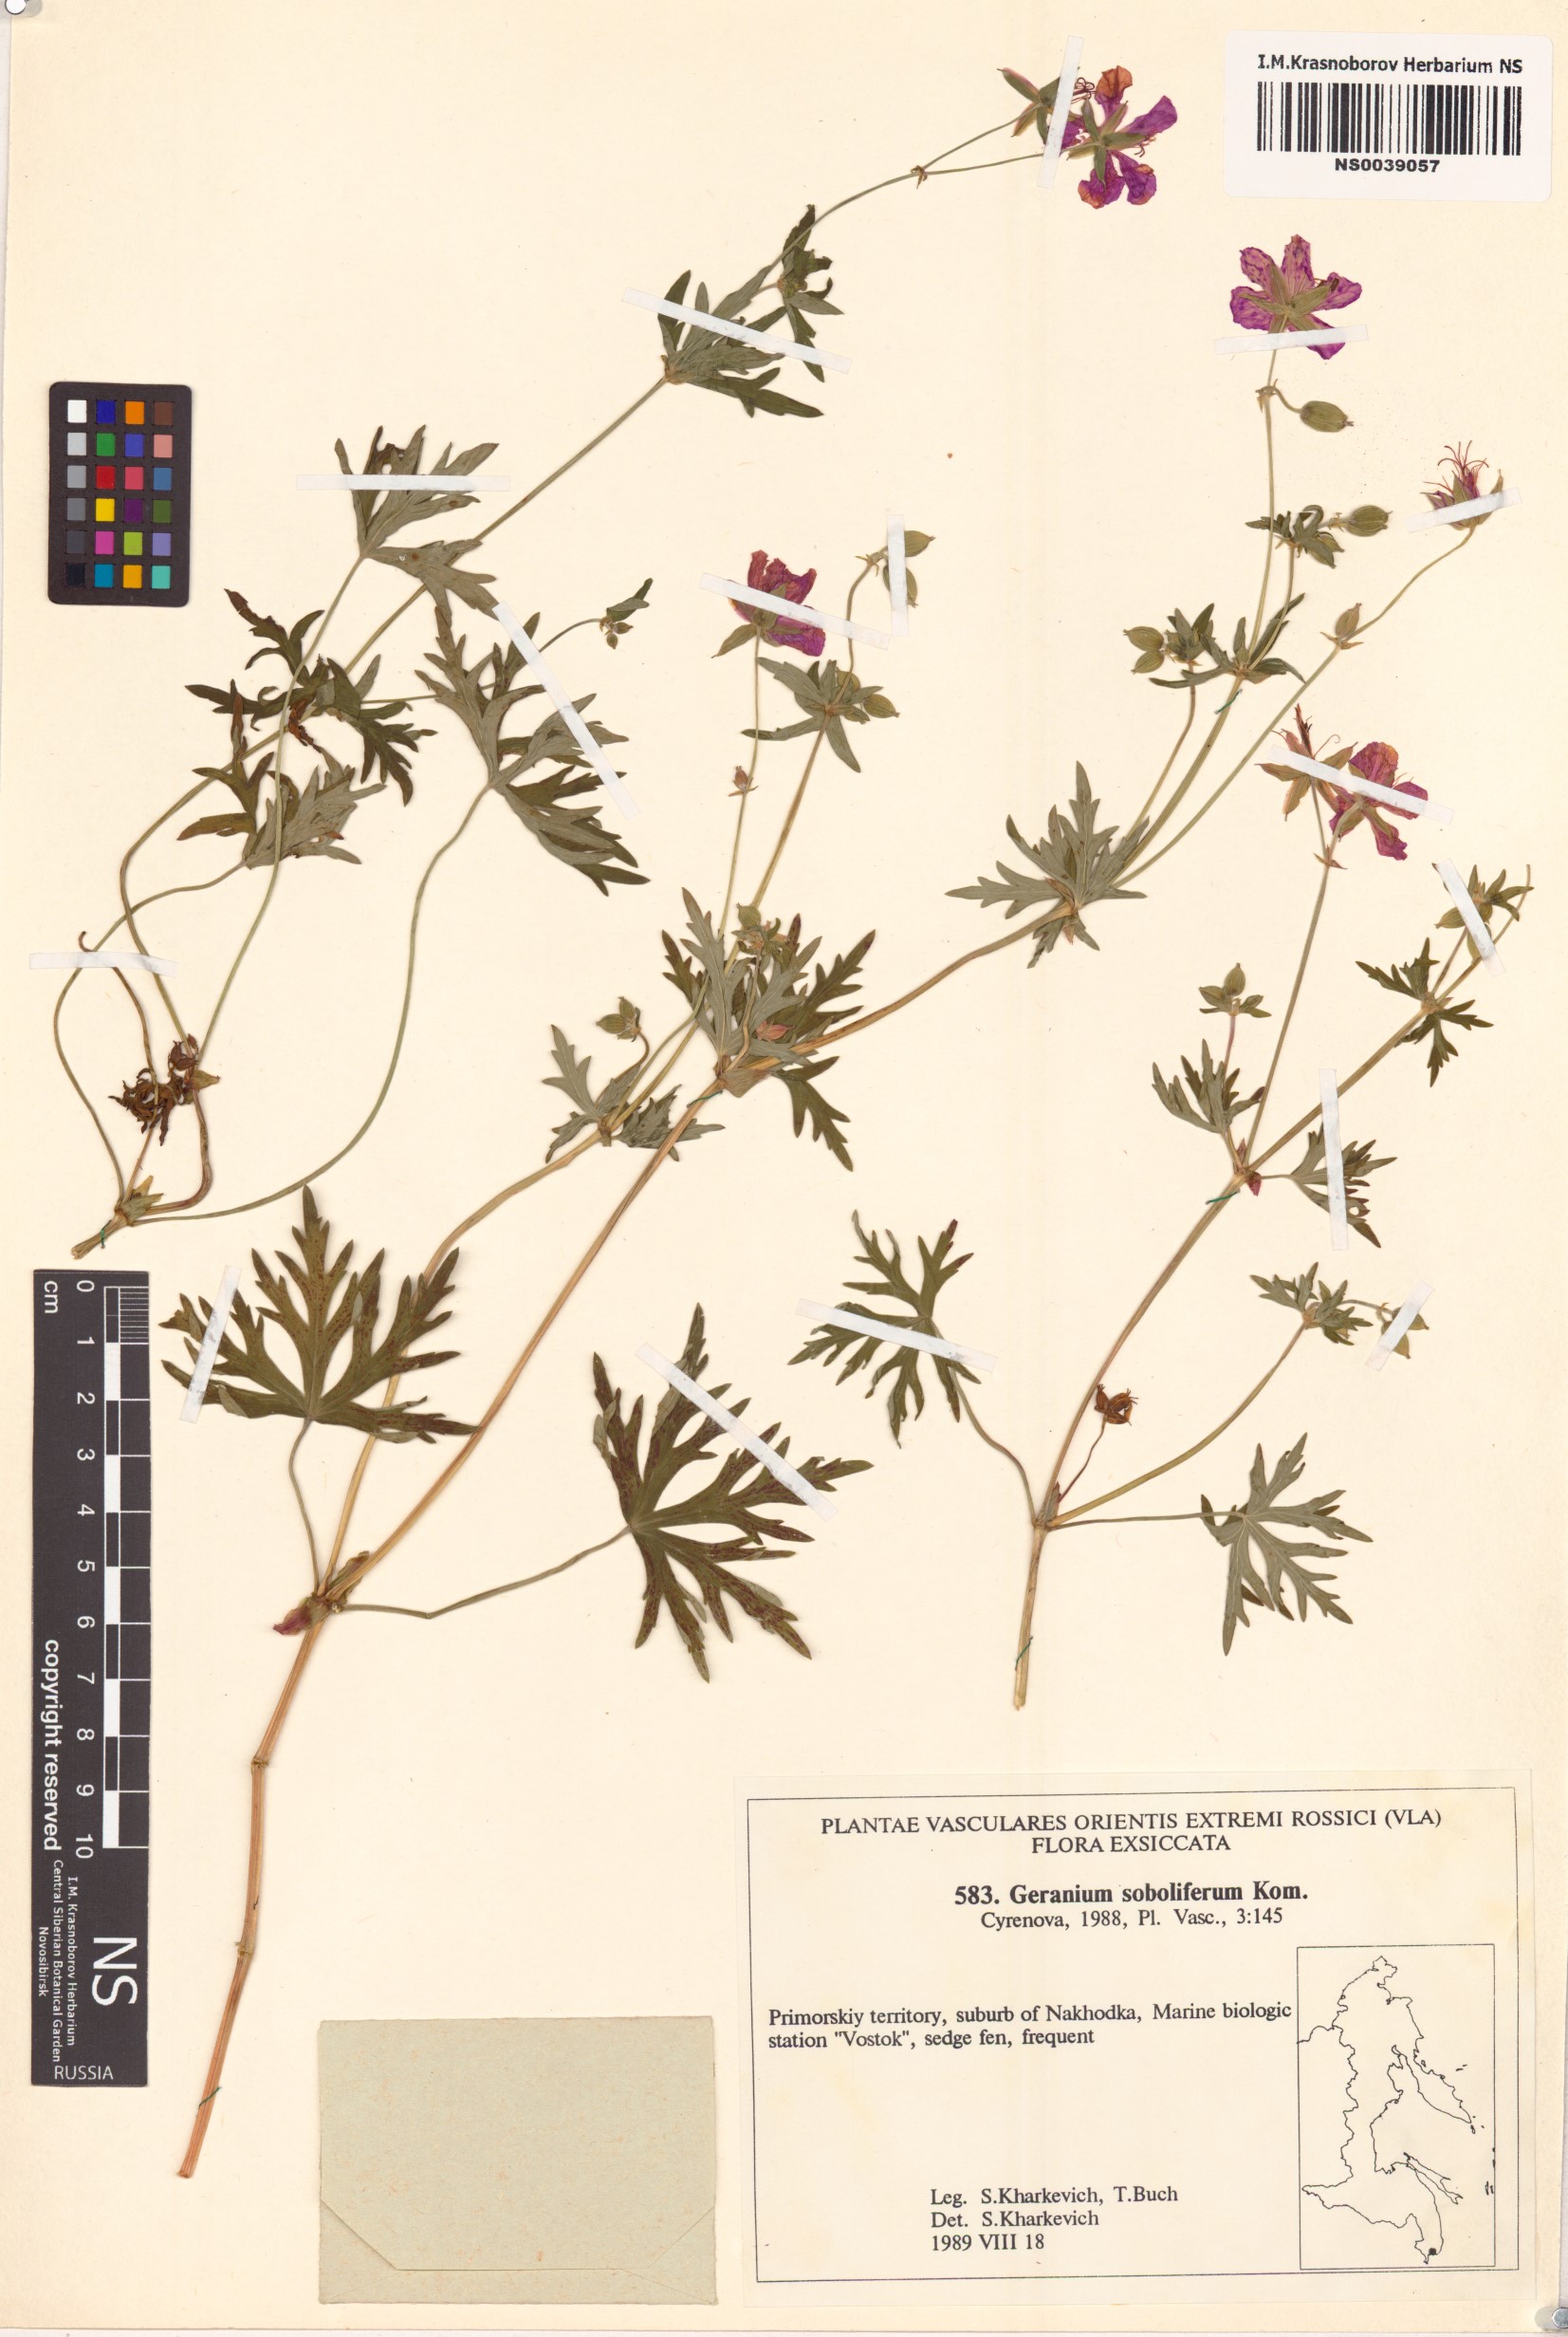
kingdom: Plantae
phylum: Tracheophyta
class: Magnoliopsida
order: Geraniales
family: Geraniaceae
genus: Geranium
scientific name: Geranium soboliferum
